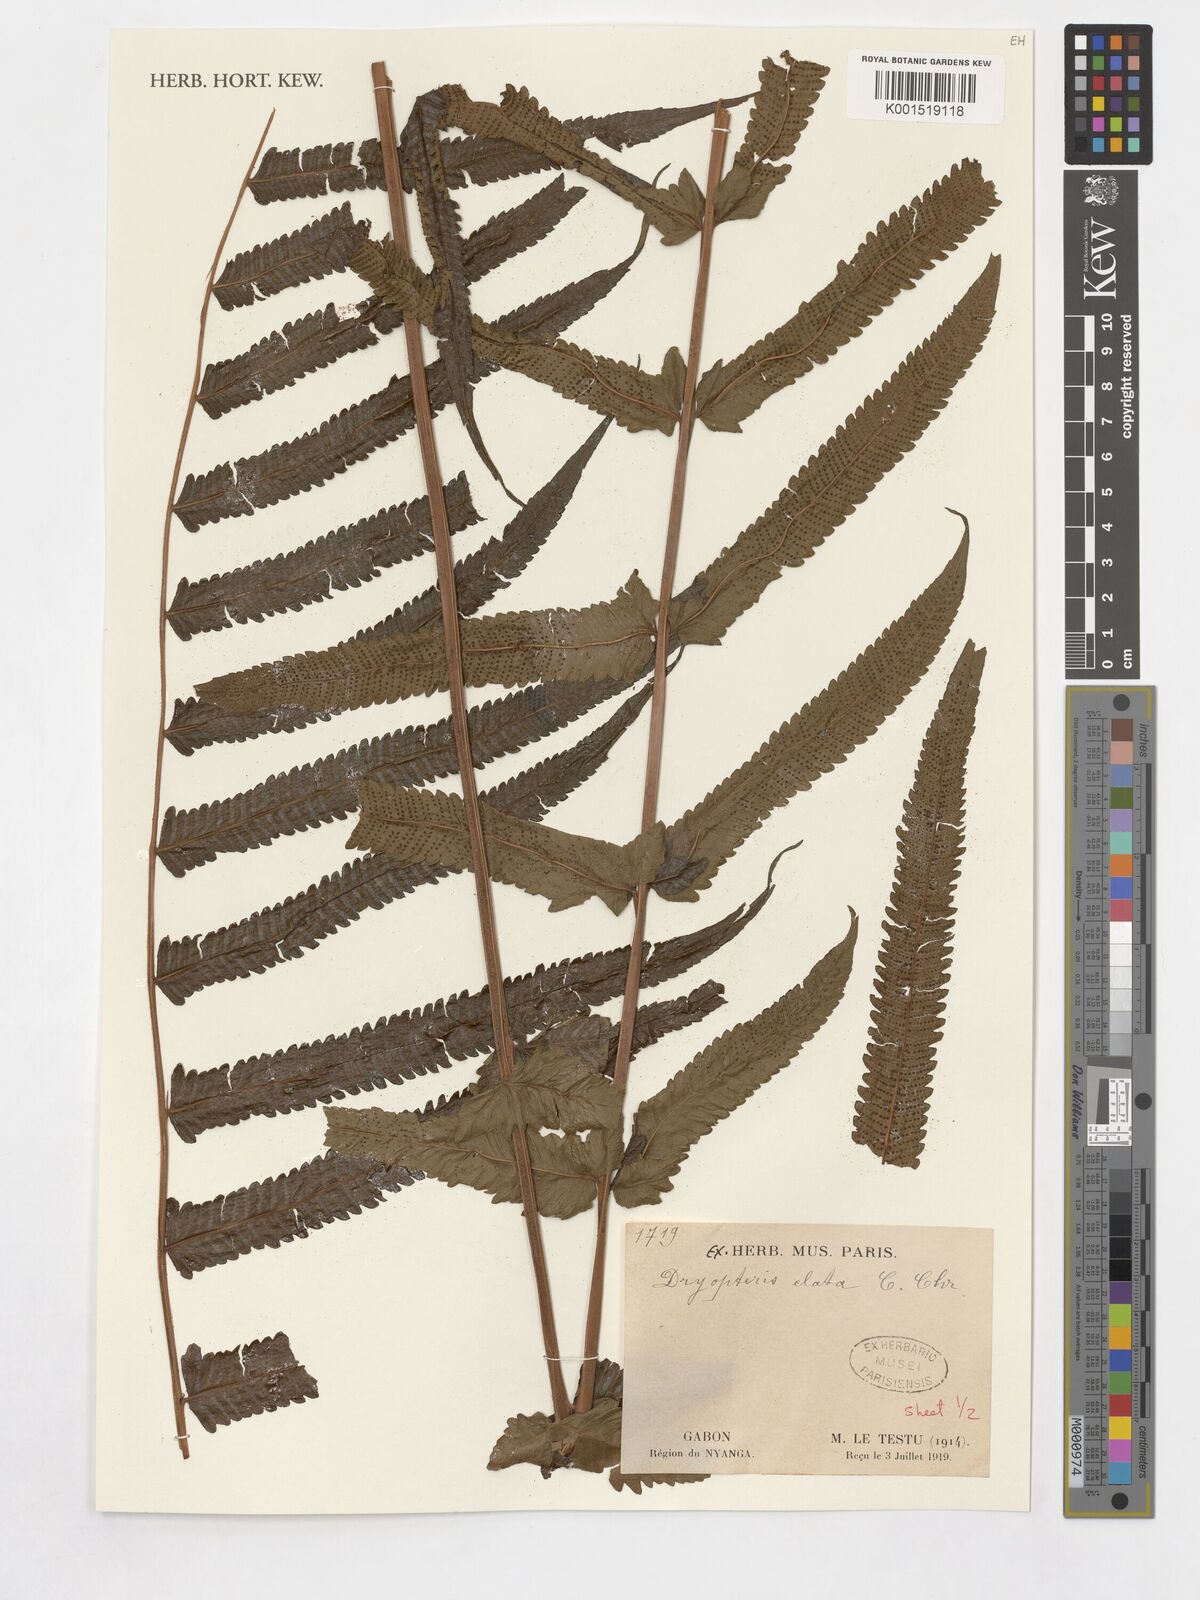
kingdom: Plantae
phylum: Tracheophyta
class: Polypodiopsida
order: Polypodiales
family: Thelypteridaceae
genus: Pneumatopteris
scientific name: Pneumatopteris venulosa
